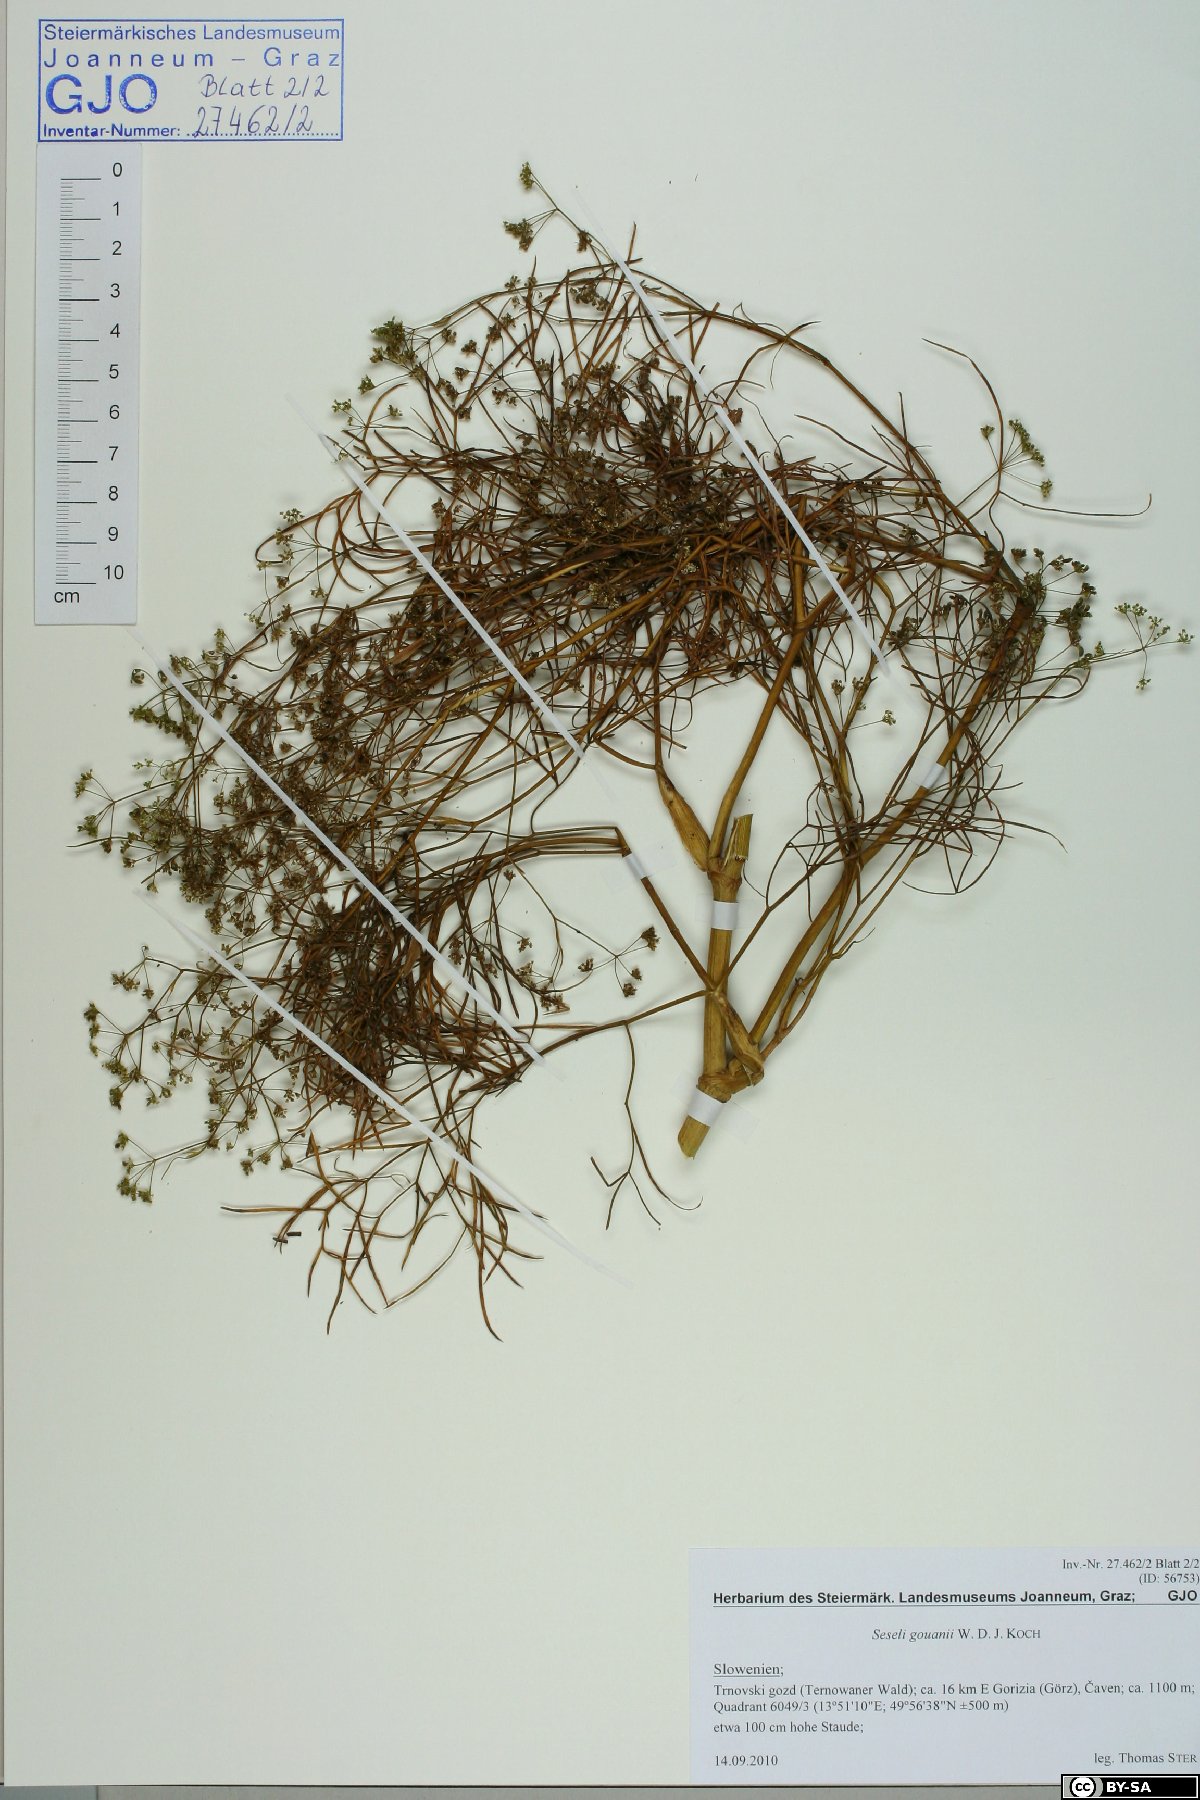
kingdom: Plantae
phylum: Tracheophyta
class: Magnoliopsida
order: Apiales
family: Apiaceae
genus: Seseli
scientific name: Seseli gouanii
